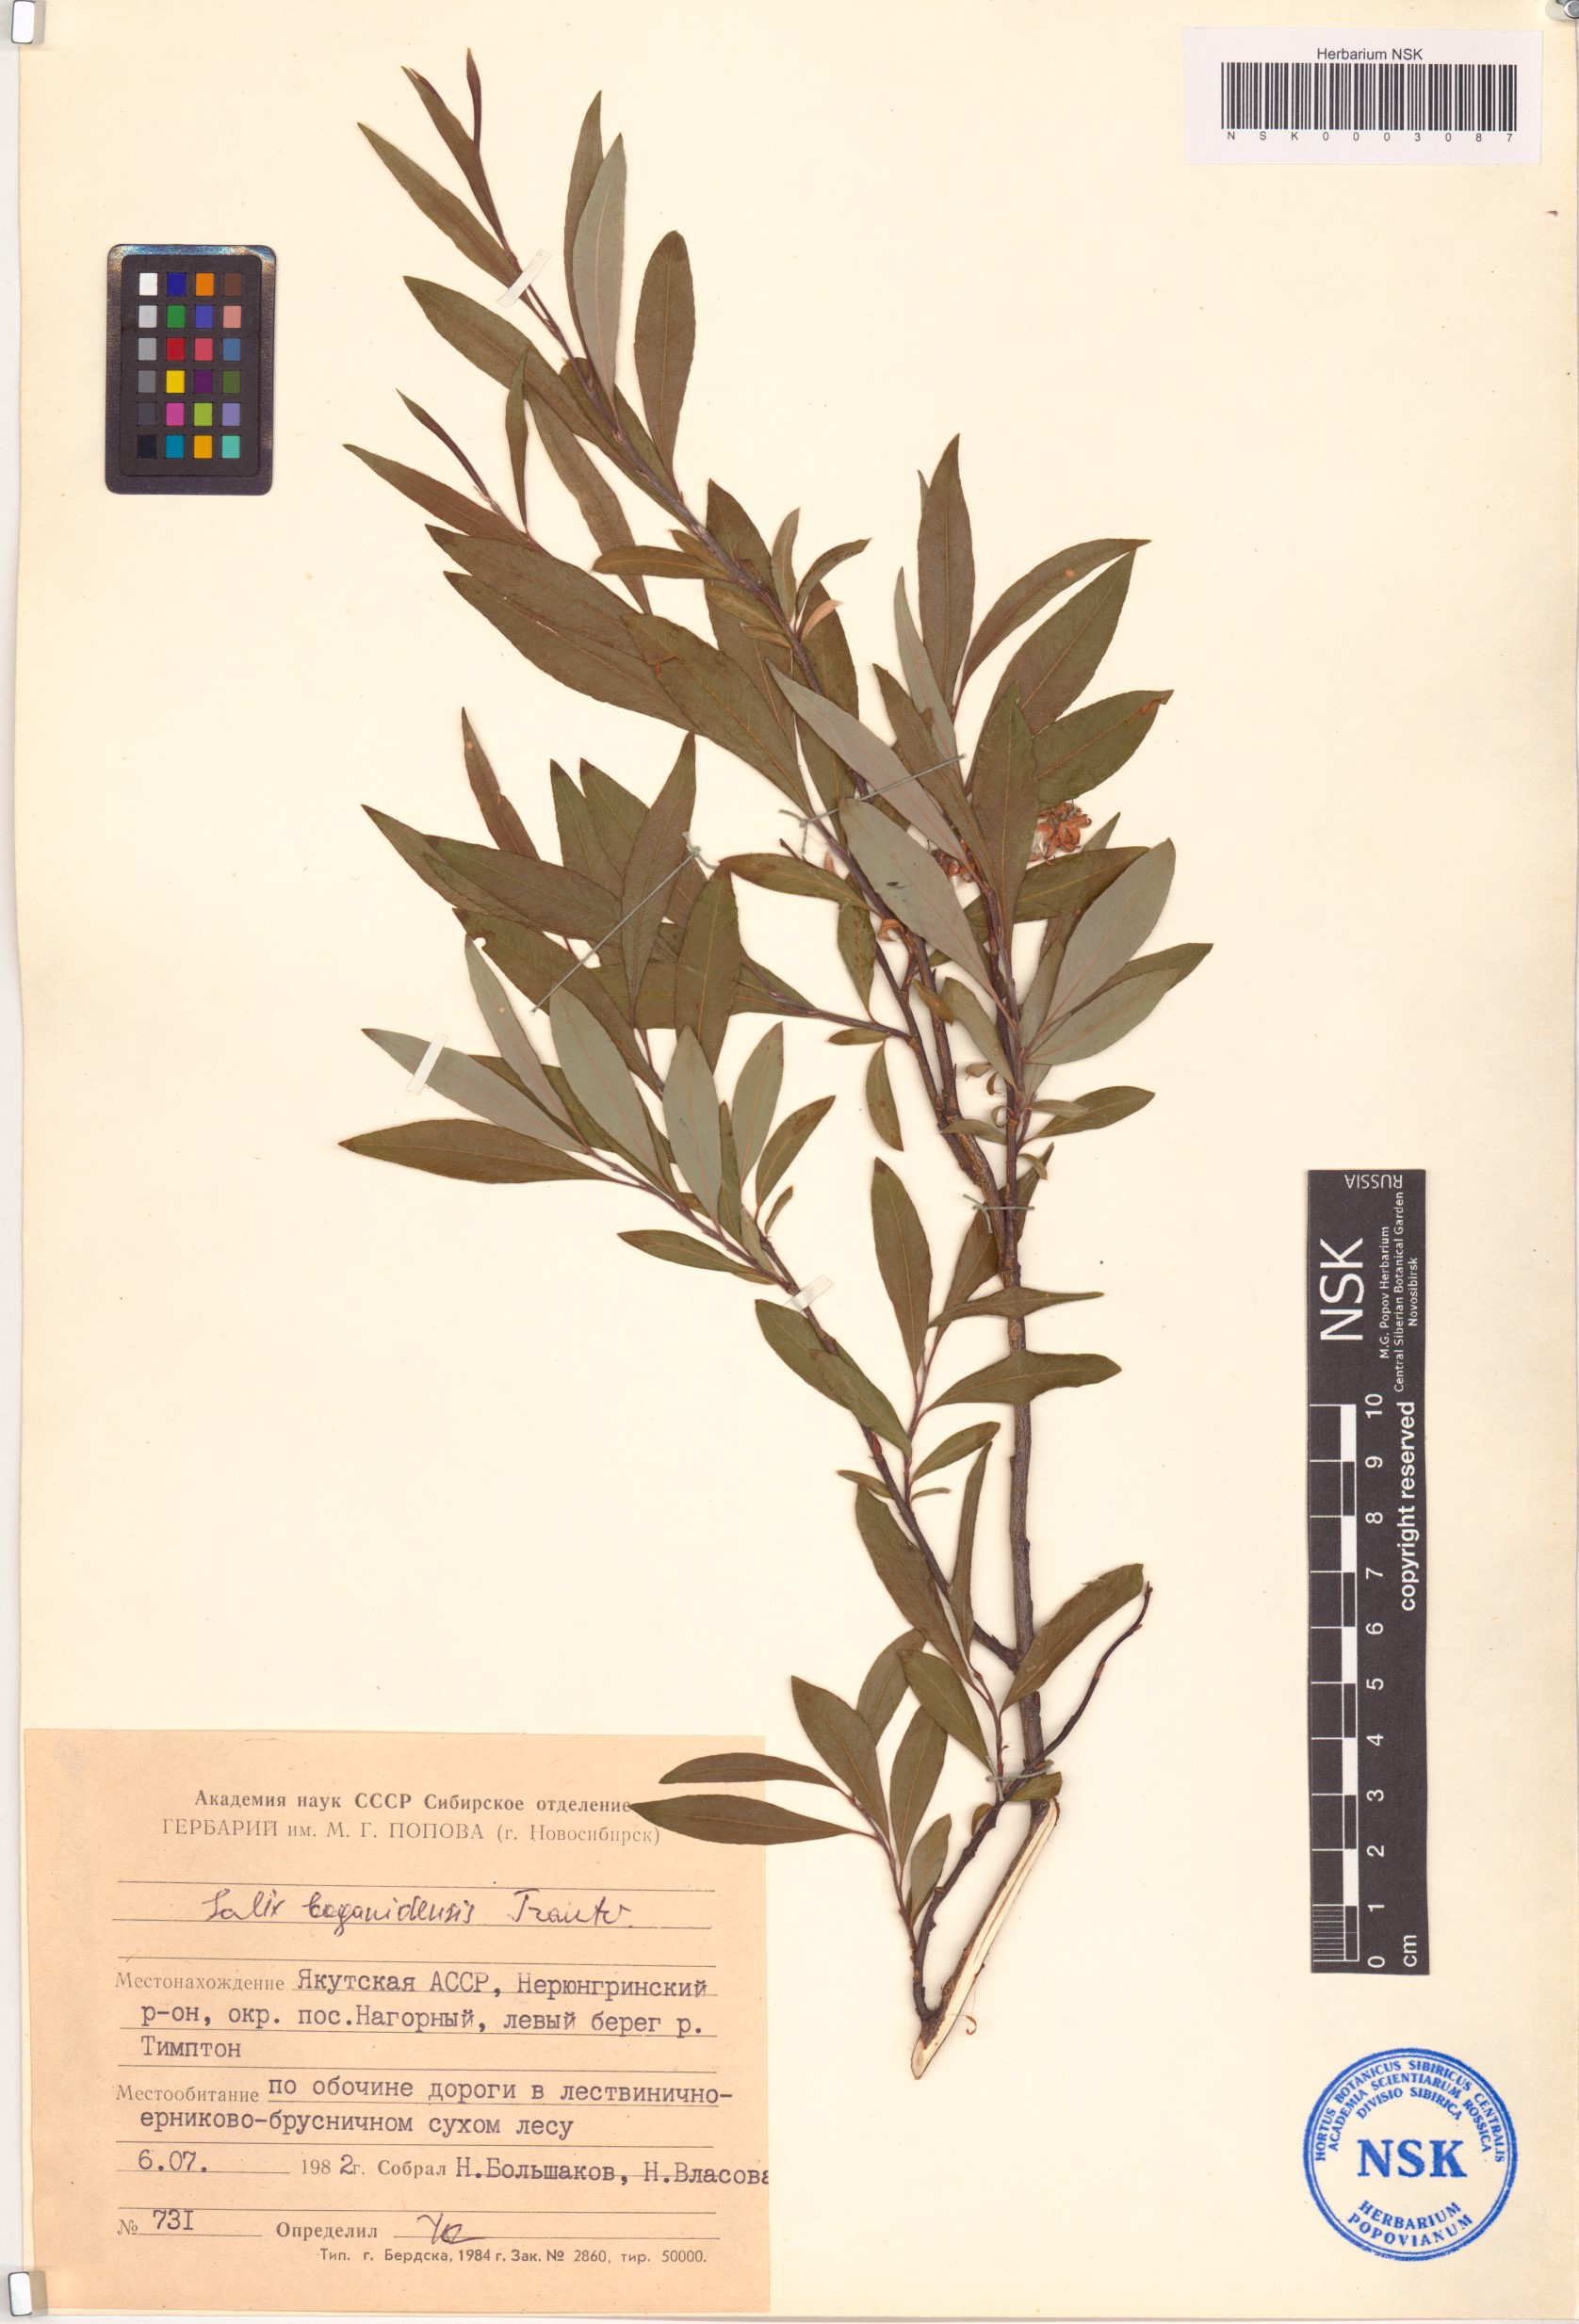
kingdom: Plantae
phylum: Tracheophyta
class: Magnoliopsida
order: Malpighiales
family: Salicaceae
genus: Salix
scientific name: Salix boganidensis
